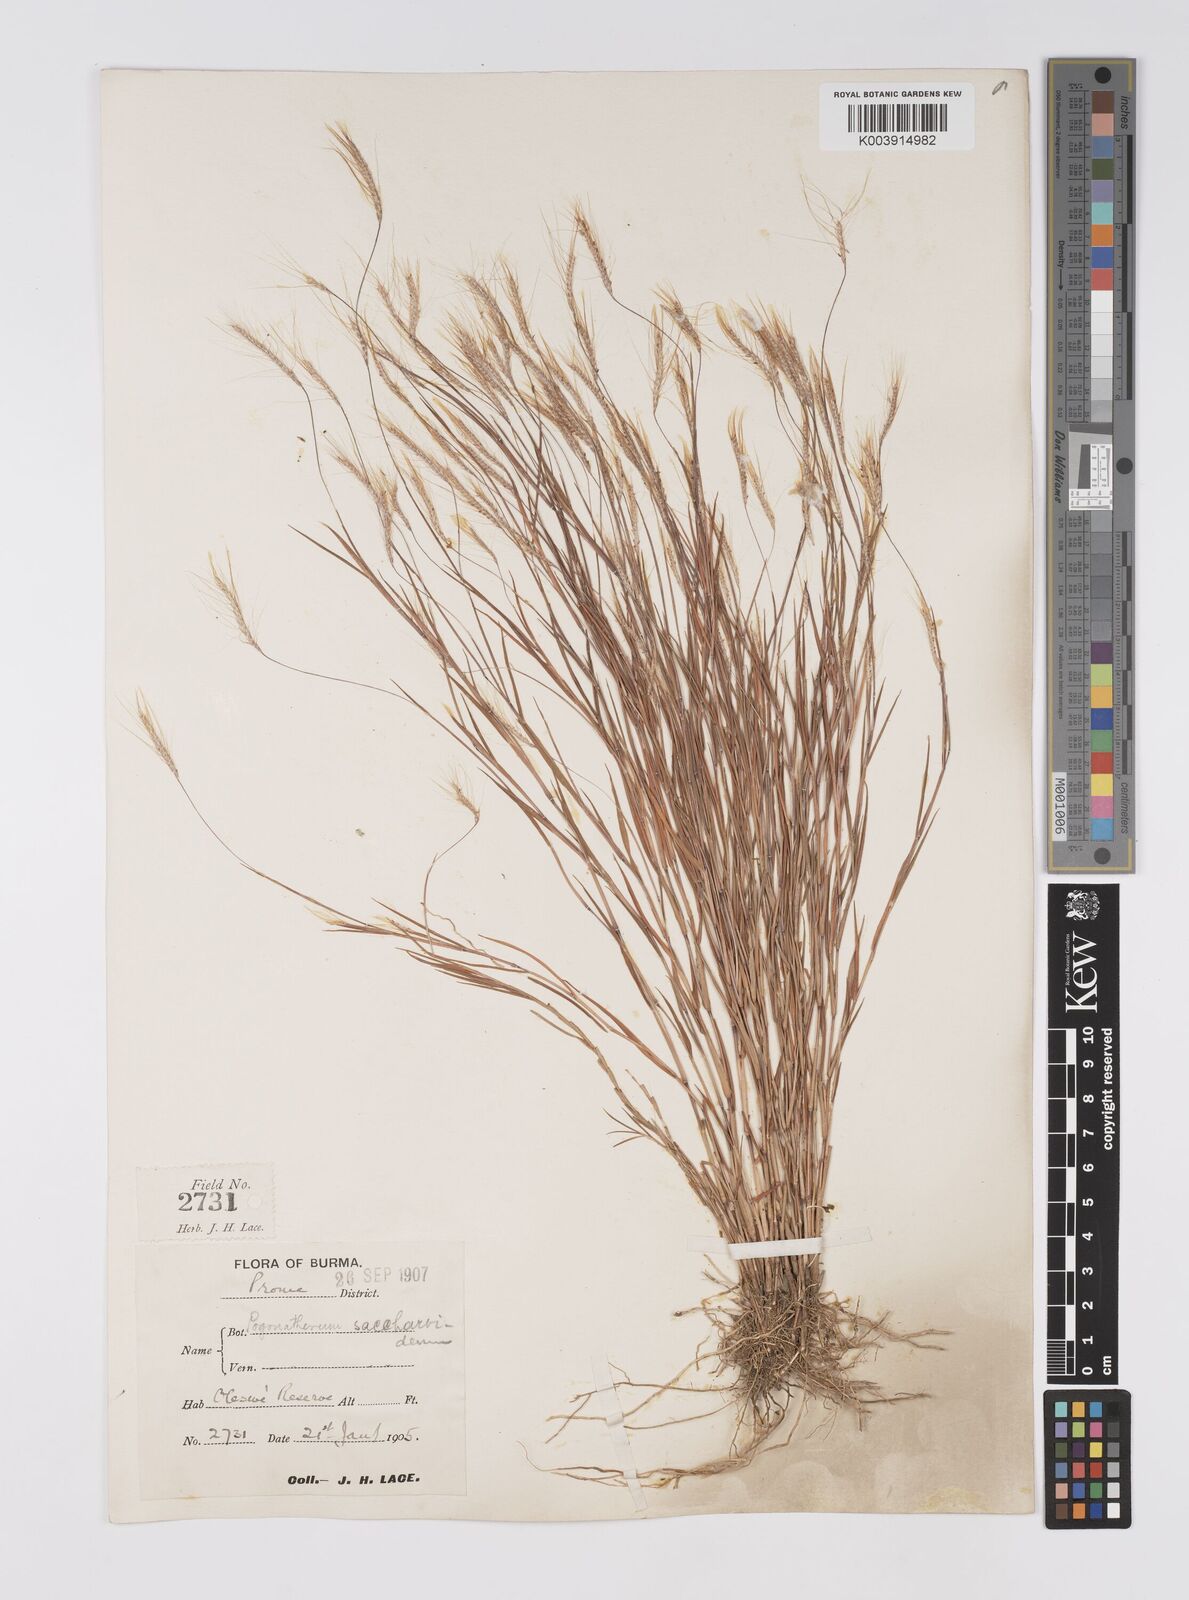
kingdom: Plantae
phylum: Tracheophyta
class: Liliopsida
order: Poales
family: Poaceae
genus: Pogonatherum
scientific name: Pogonatherum paniceum
